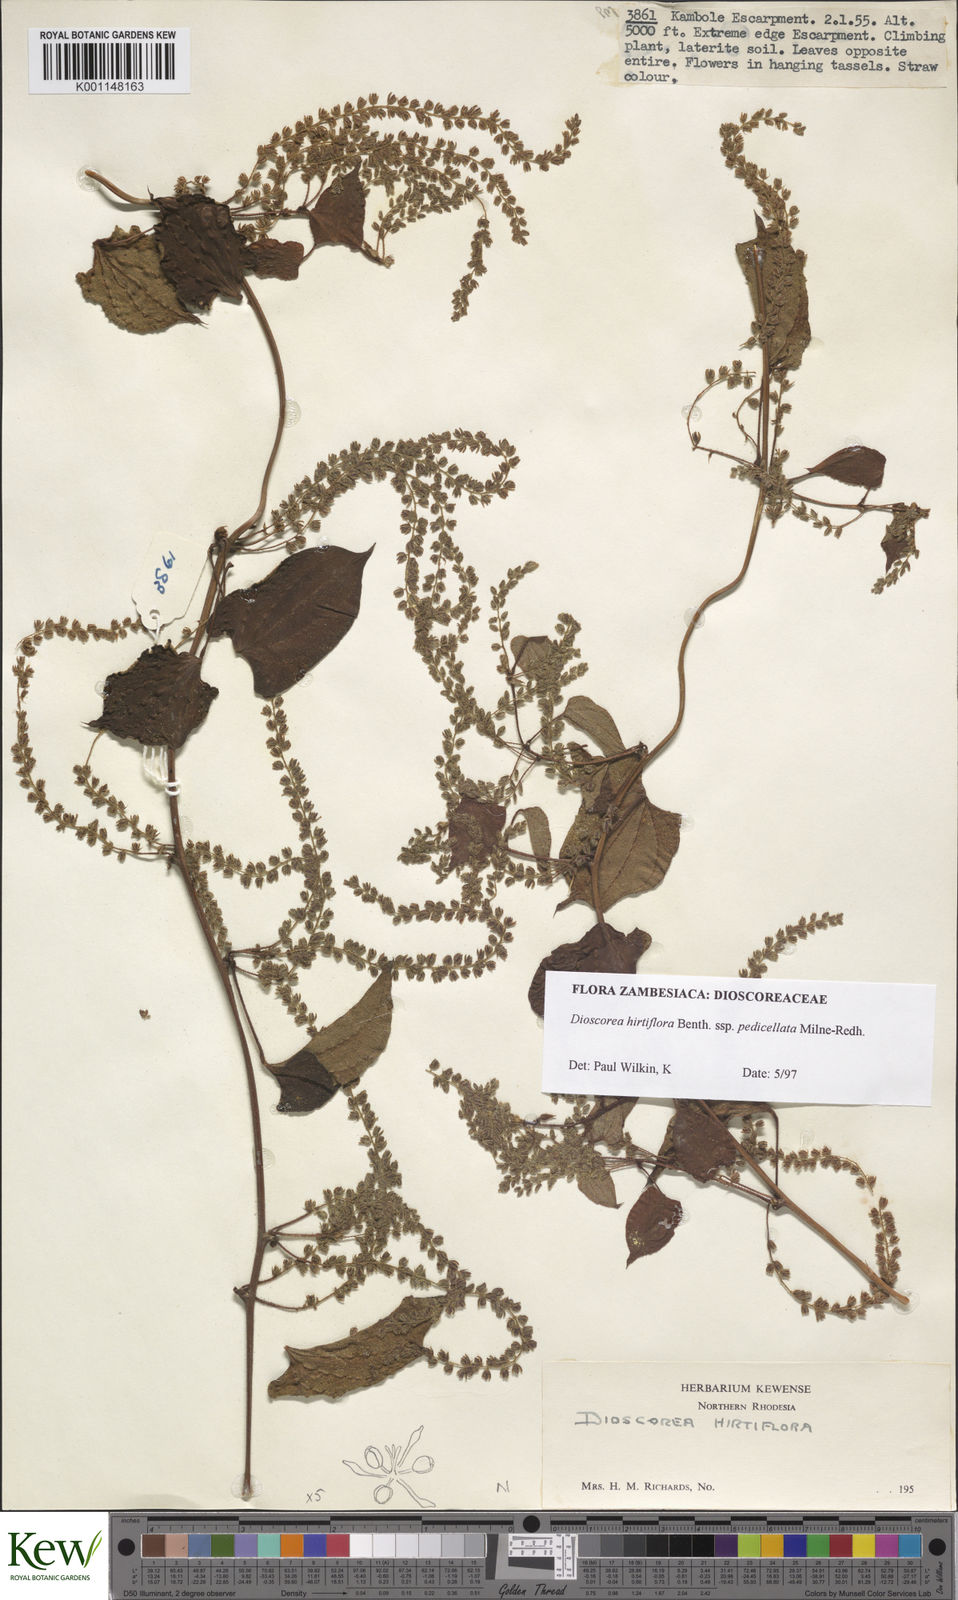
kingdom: Plantae
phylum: Tracheophyta
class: Liliopsida
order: Dioscoreales
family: Dioscoreaceae
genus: Dioscorea
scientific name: Dioscorea hirtiflora
